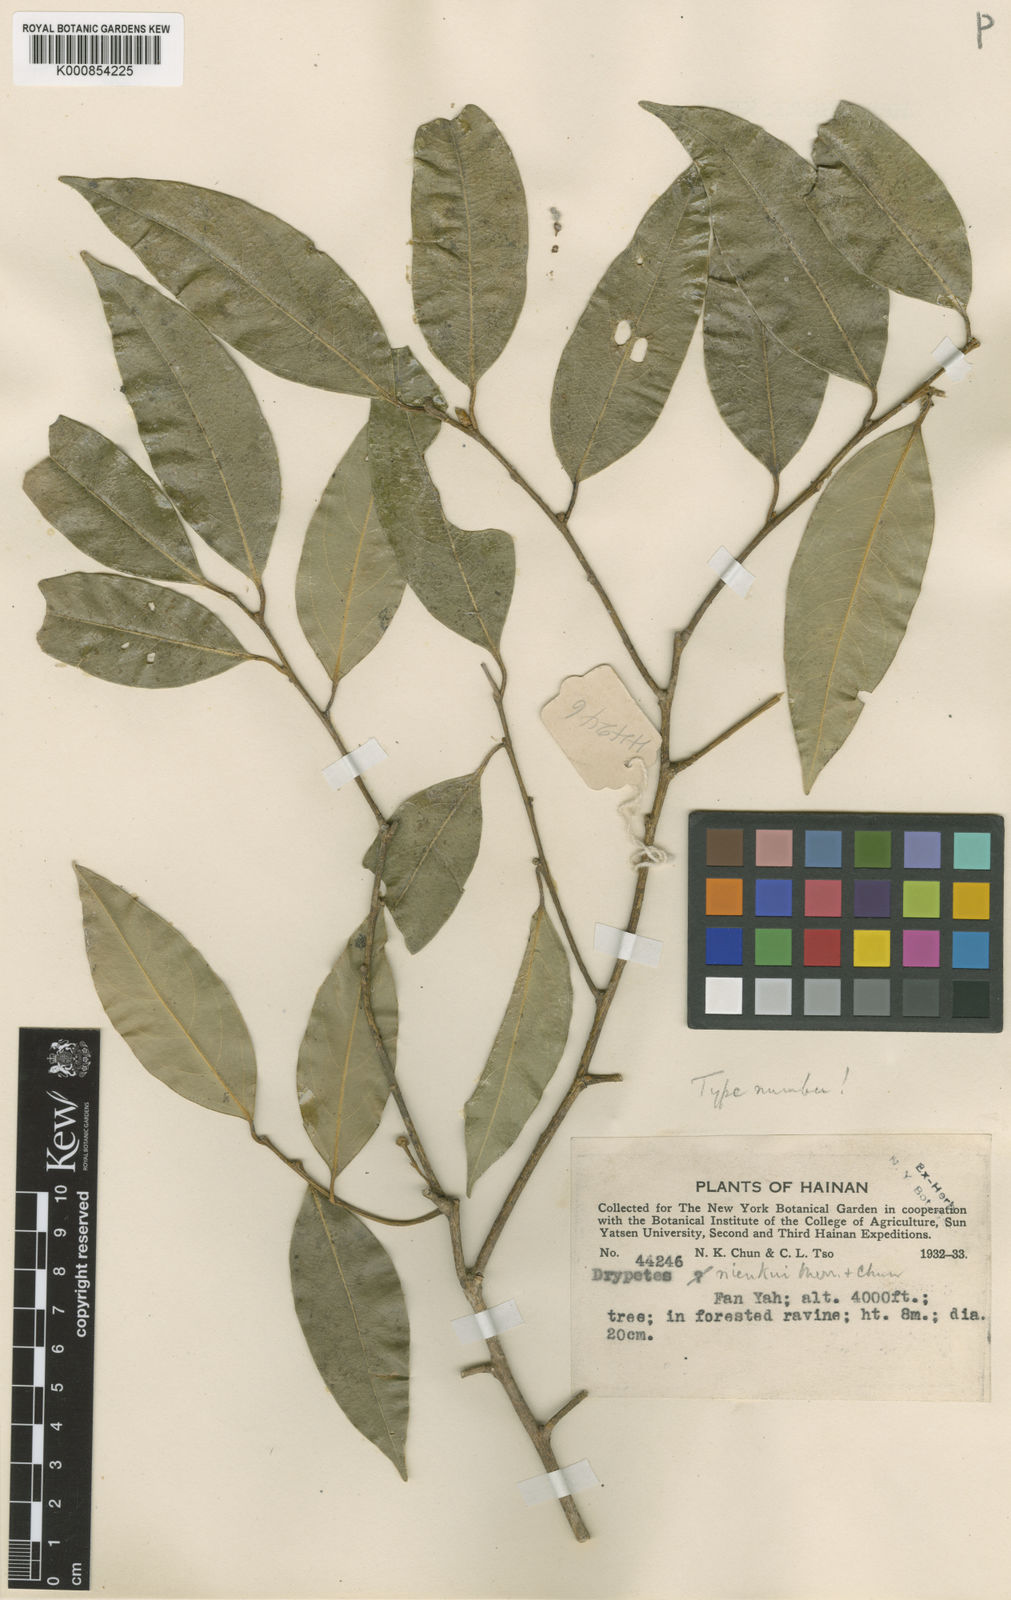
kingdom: Plantae
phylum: Tracheophyta
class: Magnoliopsida
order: Malpighiales
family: Putranjivaceae
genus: Drypetes
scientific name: Drypetes
